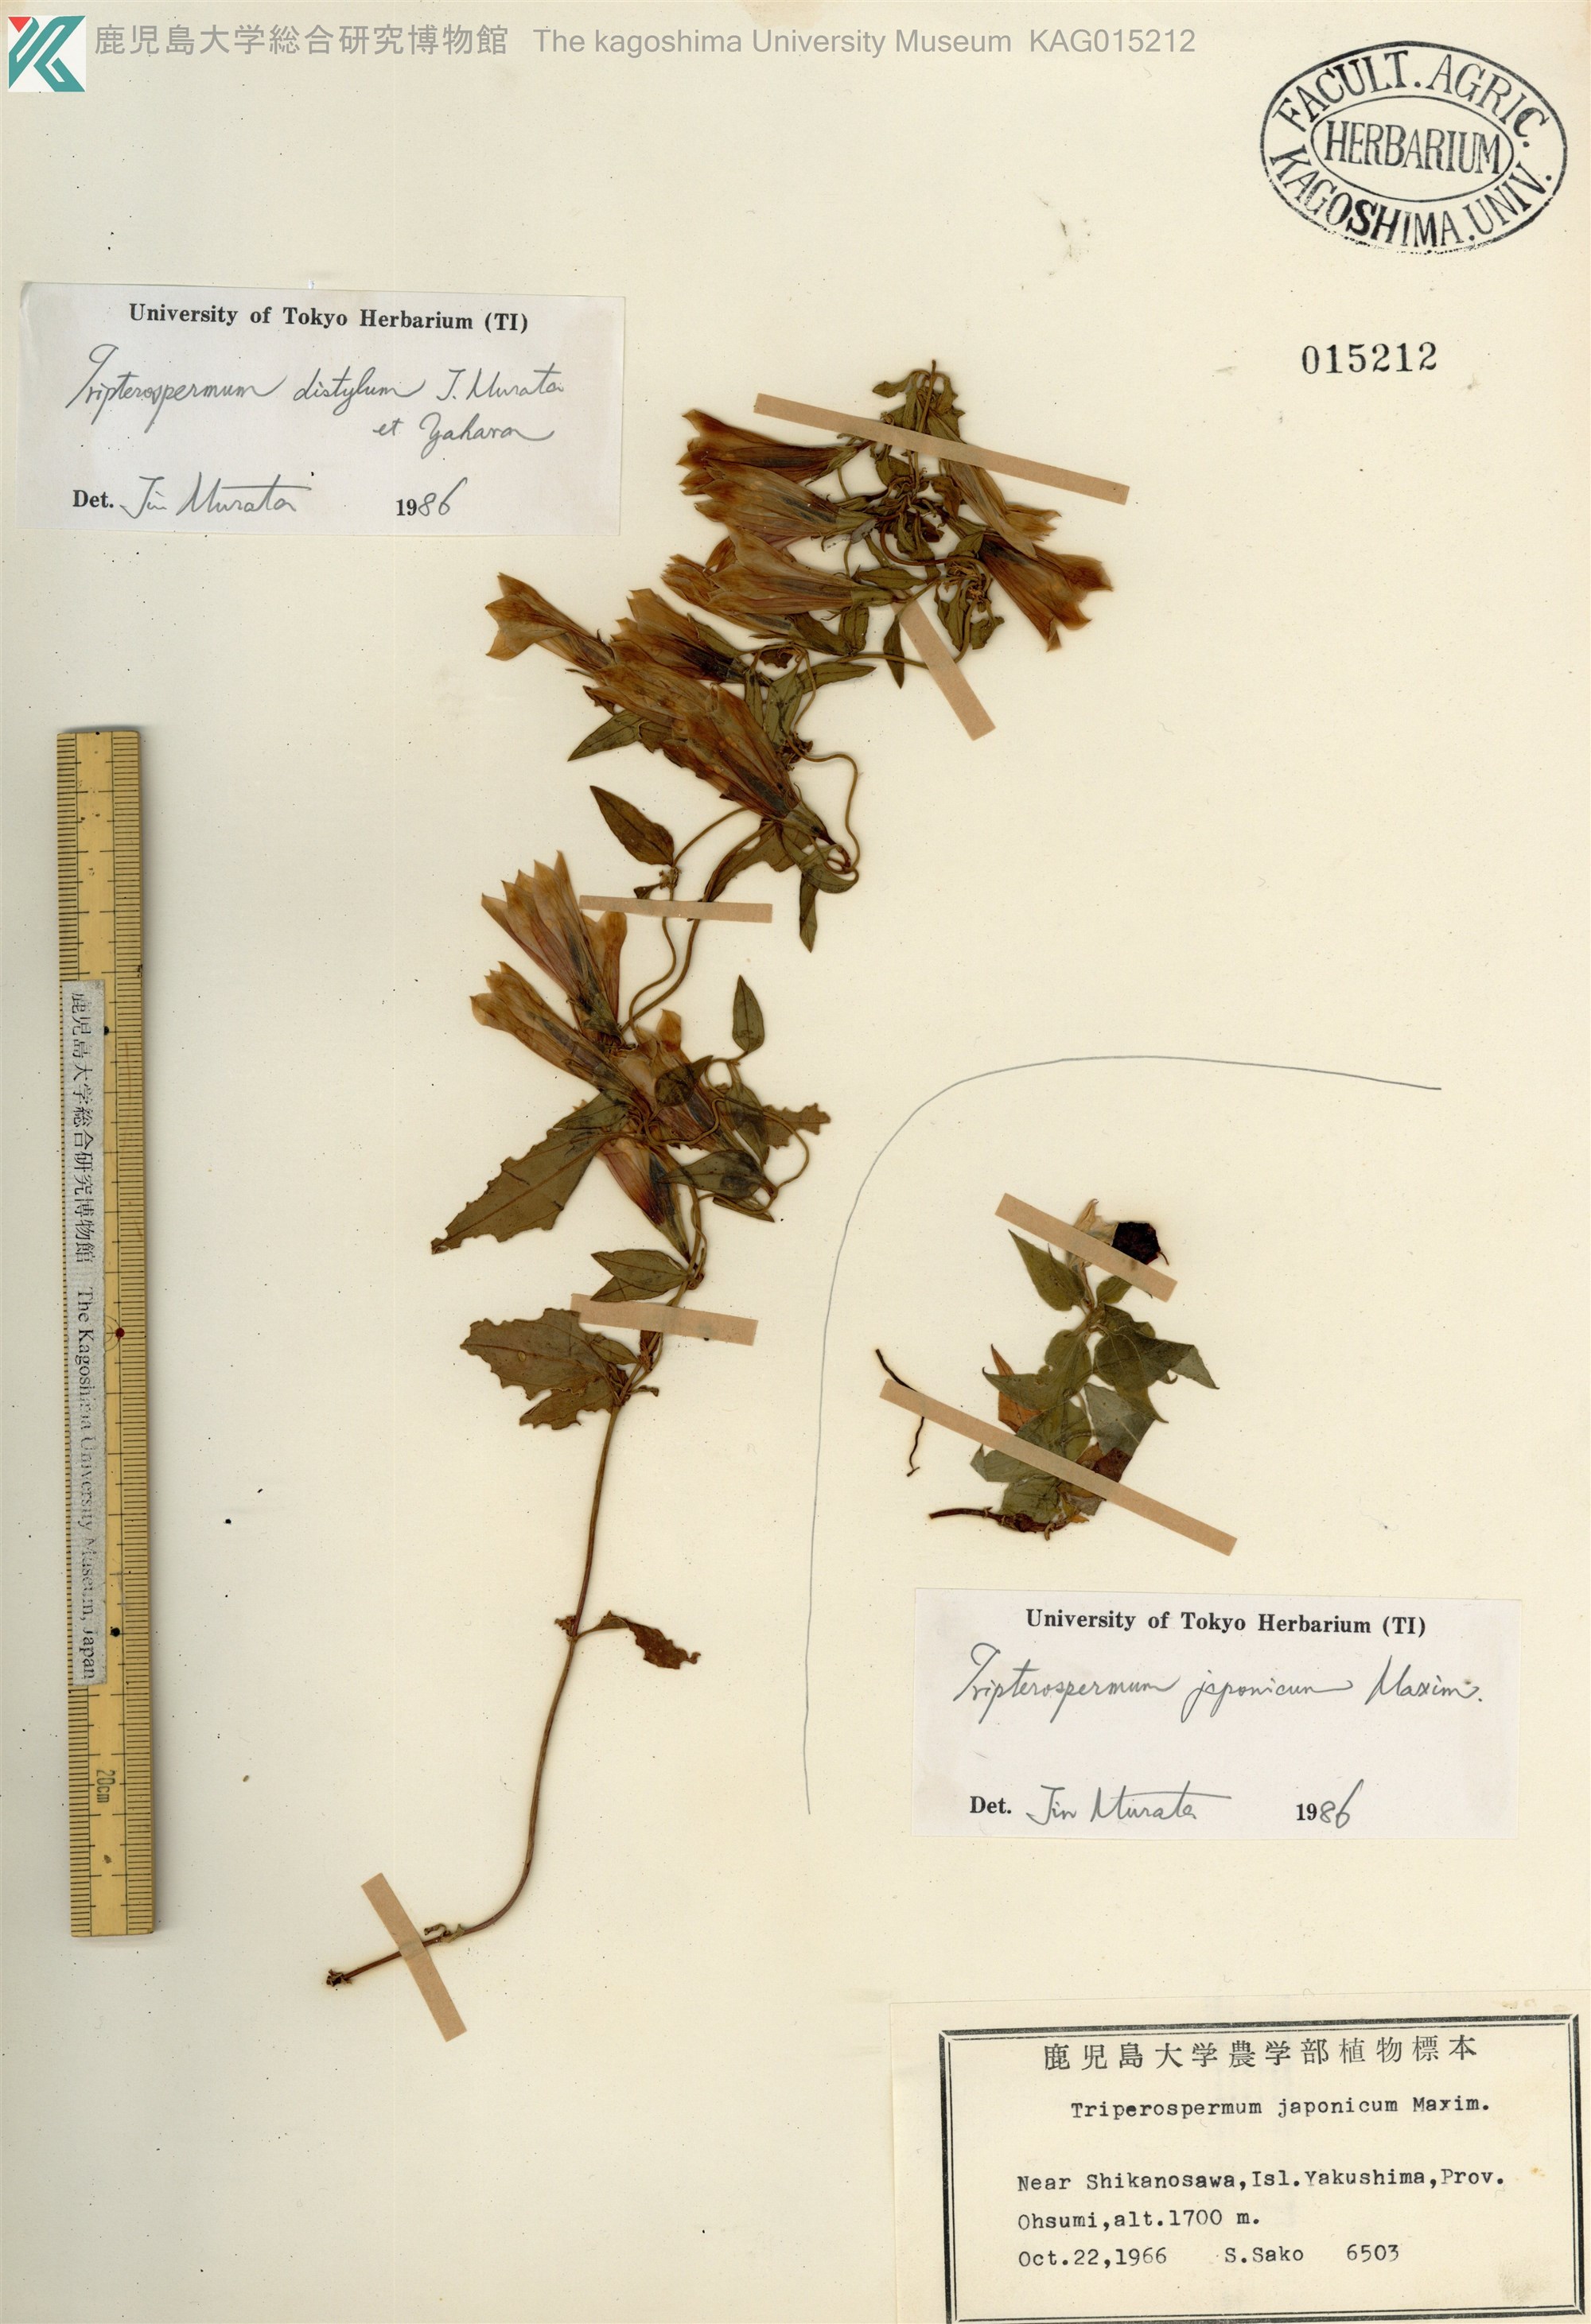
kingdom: Plantae
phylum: Tracheophyta
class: Magnoliopsida
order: Gentianales
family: Gentianaceae
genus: Tripterospermum
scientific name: Tripterospermum distylum
